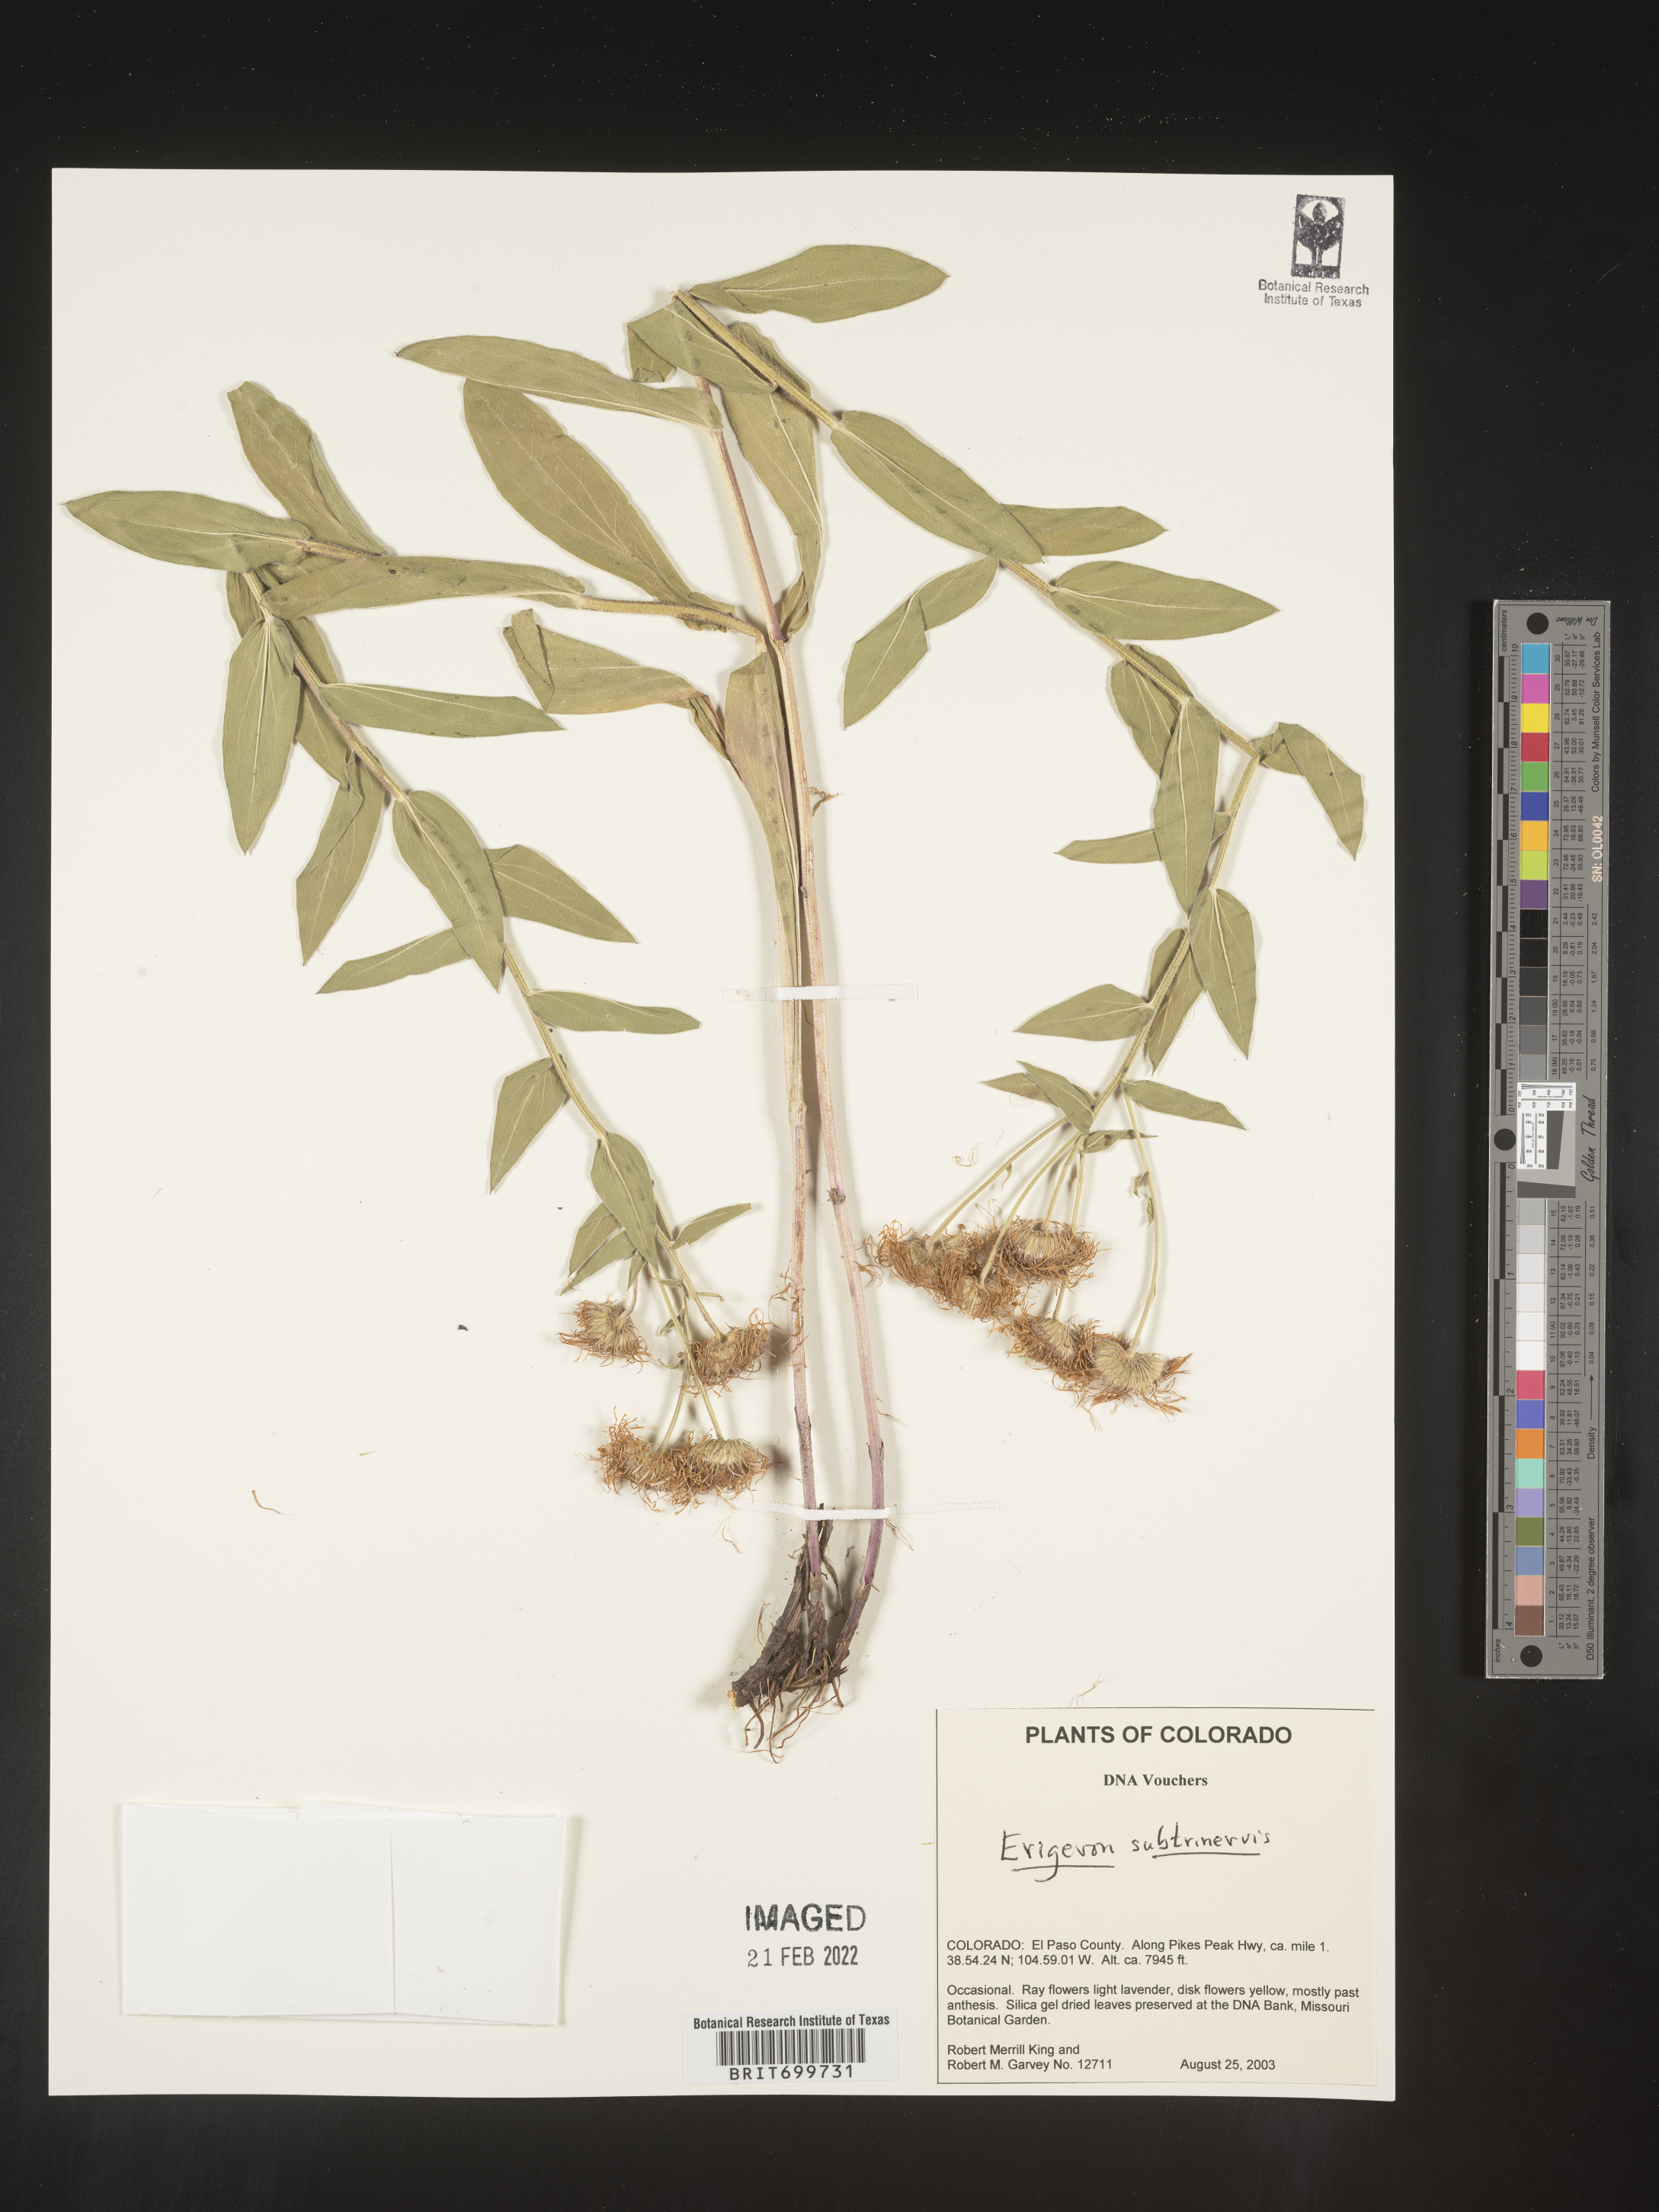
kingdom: Plantae
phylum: Tracheophyta
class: Magnoliopsida
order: Asterales
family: Asteraceae
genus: Erigeron
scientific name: Erigeron subtrinervis
